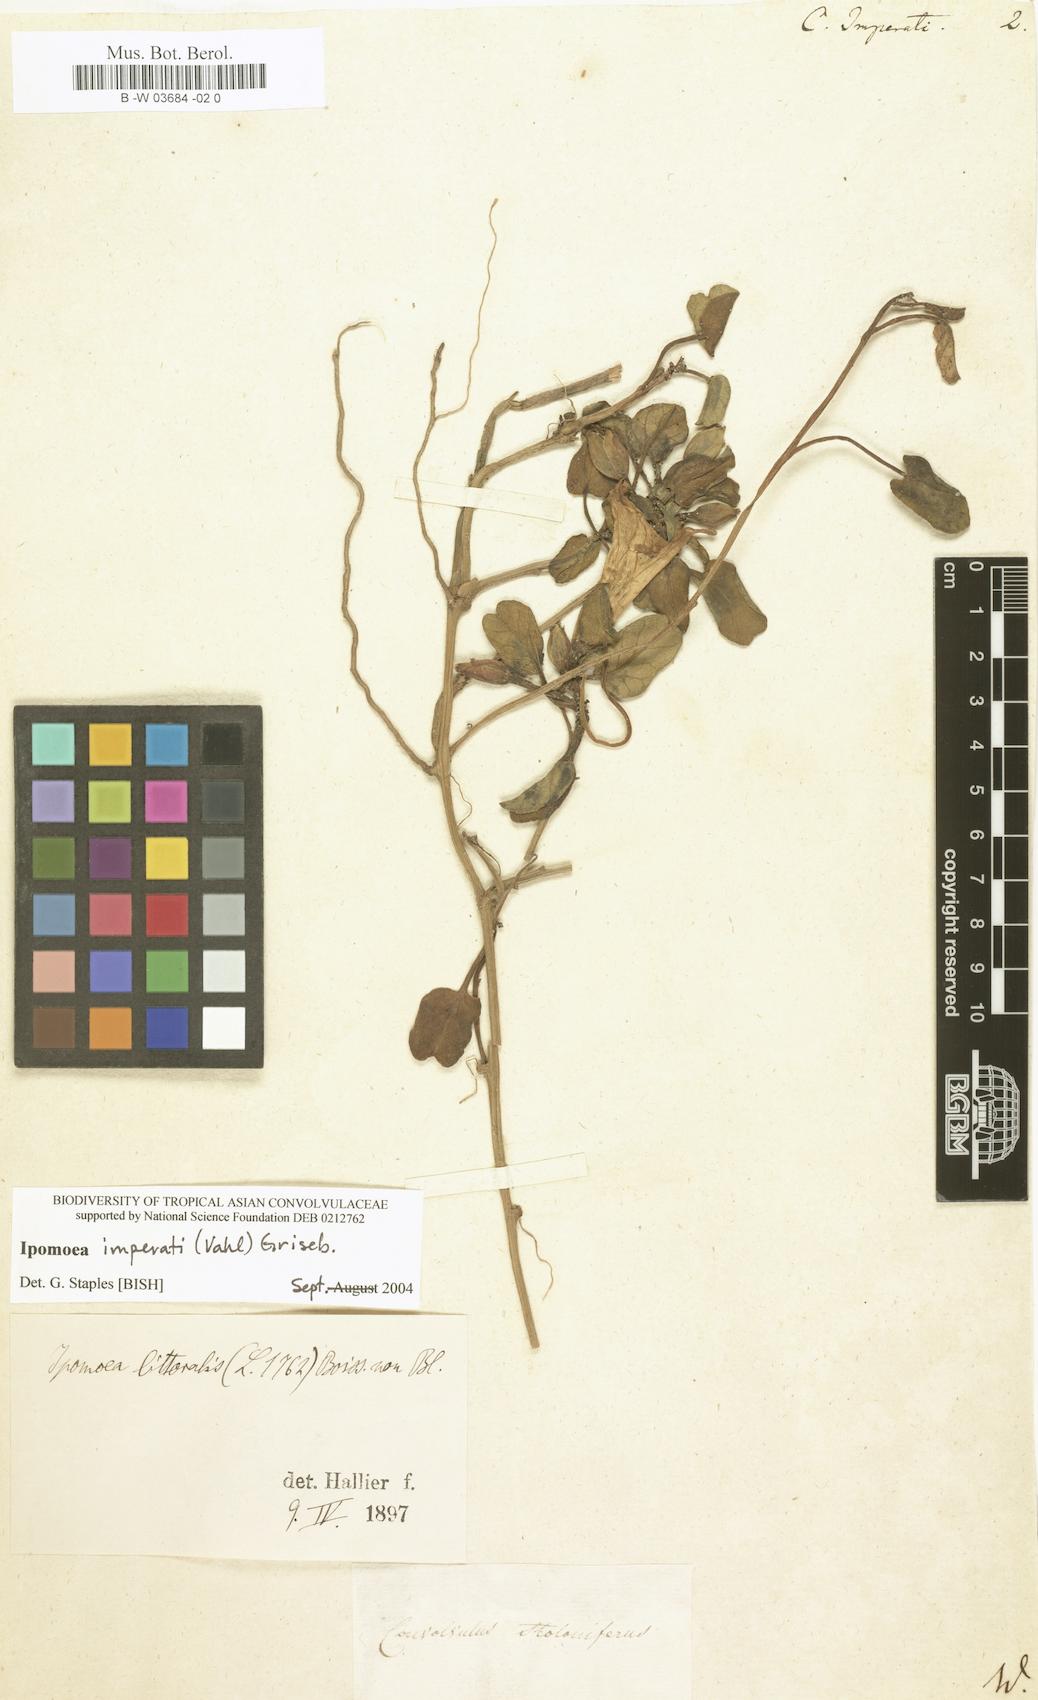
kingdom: Plantae
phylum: Tracheophyta
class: Magnoliopsida
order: Solanales
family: Convolvulaceae
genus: Ipomoea
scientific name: Ipomoea imperati
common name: Fiddle-leaf morning-glory
